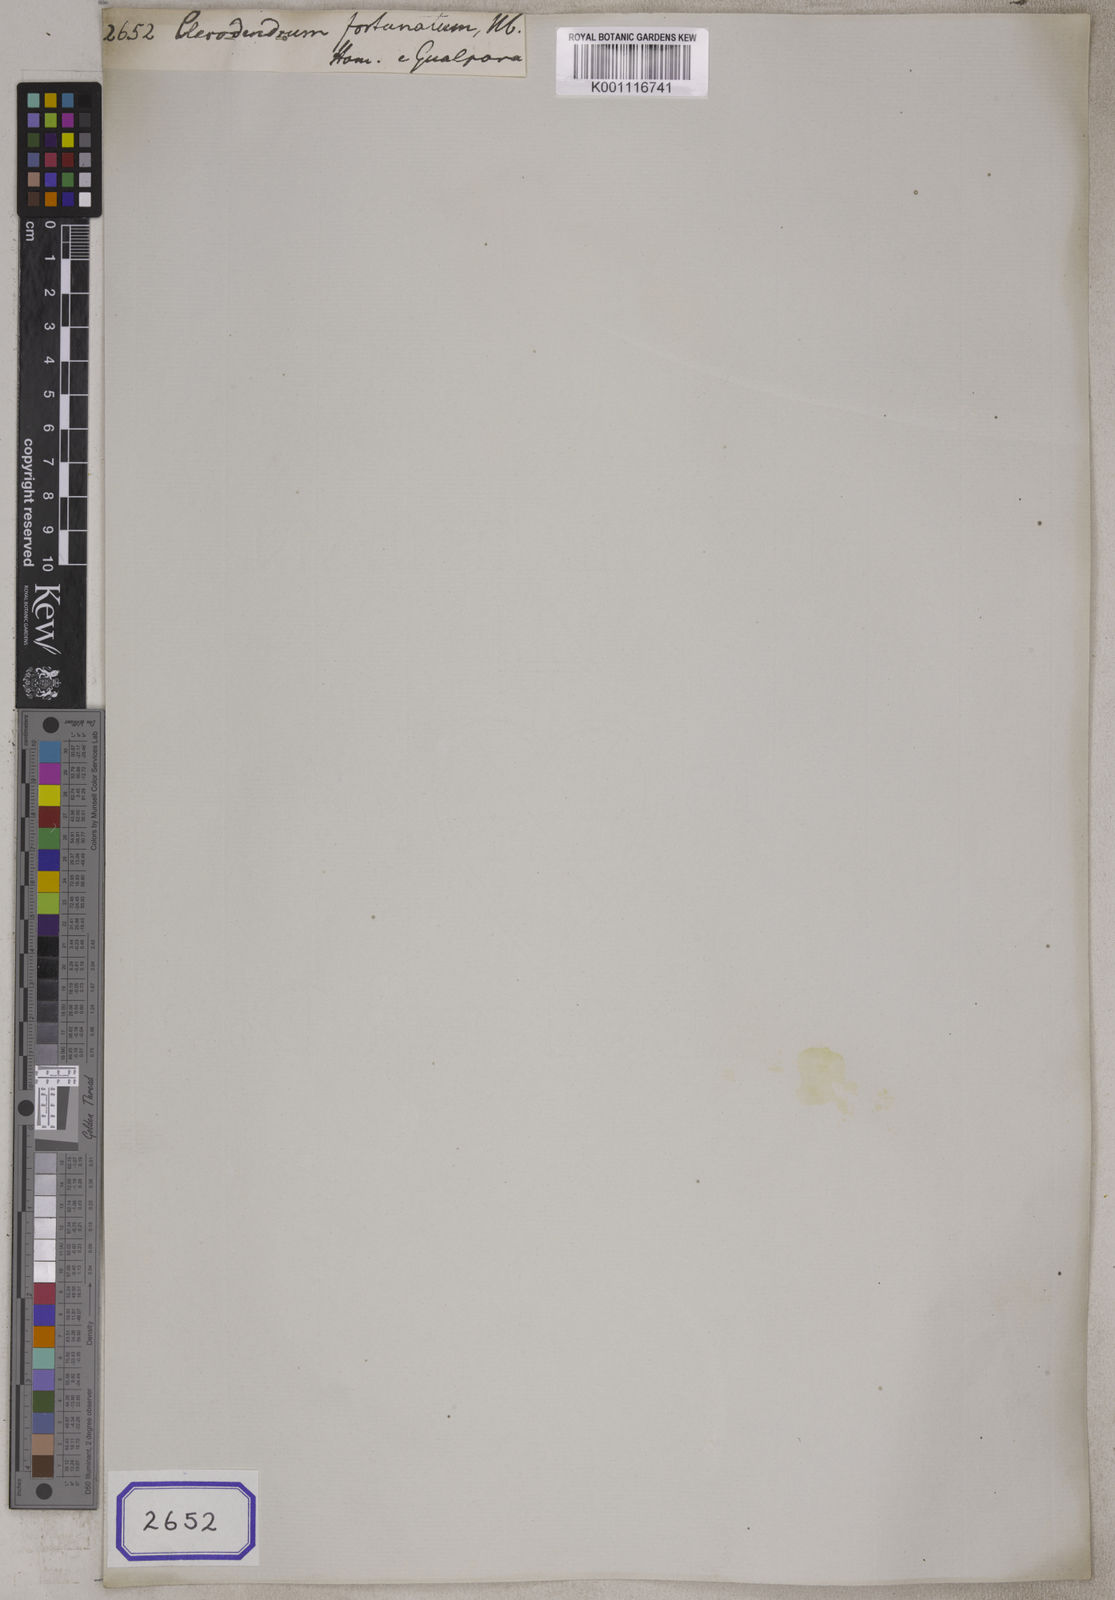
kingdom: Plantae
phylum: Tracheophyta
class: Magnoliopsida
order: Lamiales
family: Lamiaceae
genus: Clerodendrum
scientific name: Clerodendrum
